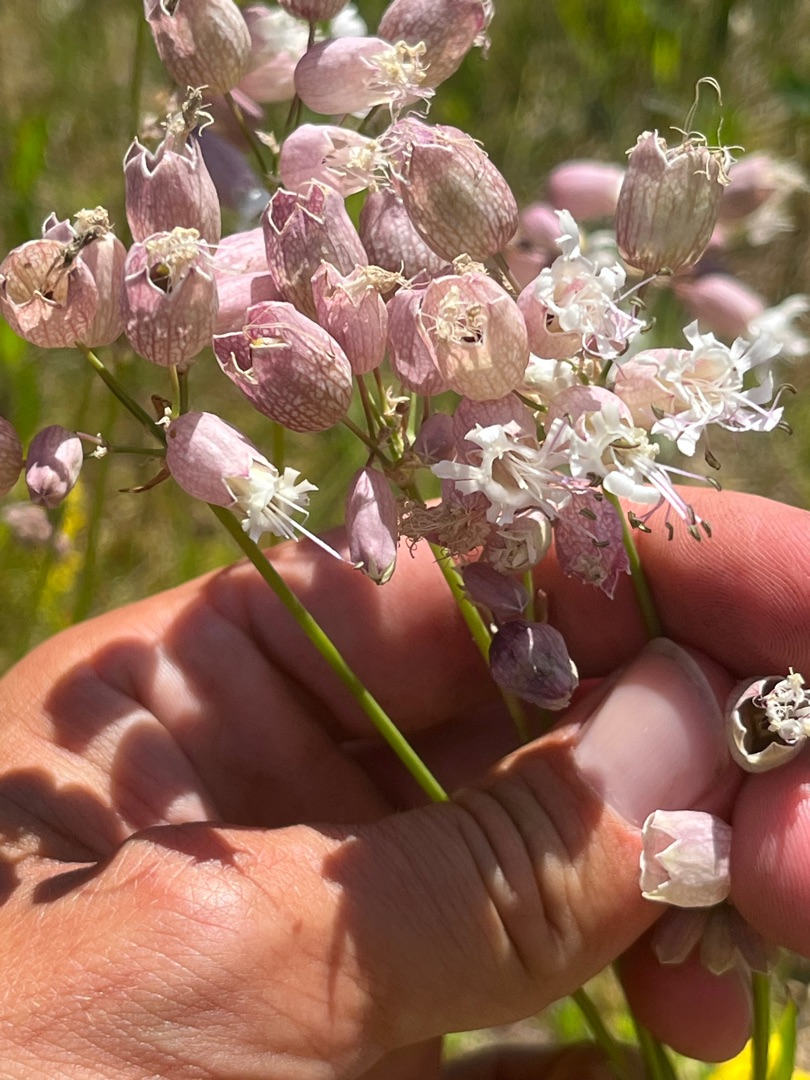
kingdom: Plantae
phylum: Tracheophyta
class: Magnoliopsida
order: Caryophyllales
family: Caryophyllaceae
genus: Silene
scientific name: Silene vulgaris
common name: Blæresmælde
